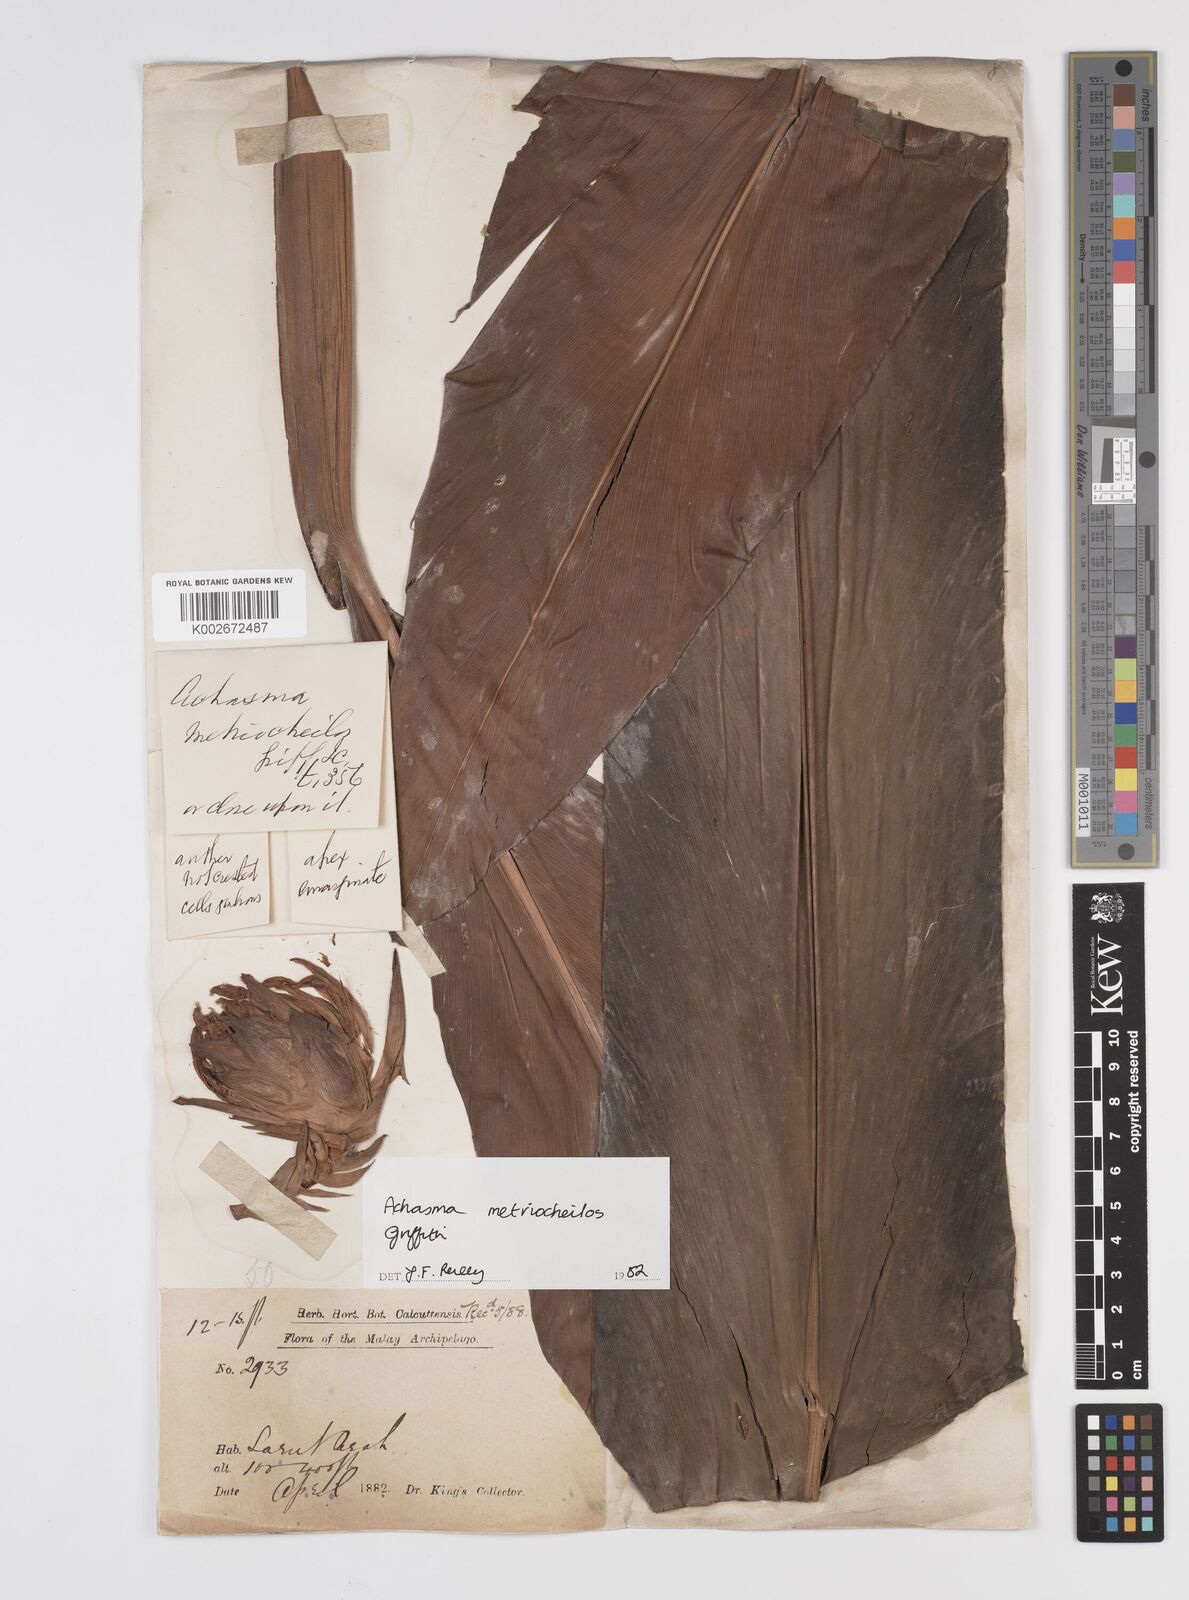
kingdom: Plantae
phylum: Tracheophyta
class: Liliopsida
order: Zingiberales
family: Zingiberaceae
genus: Etlingera
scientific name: Etlingera metriocheilos
